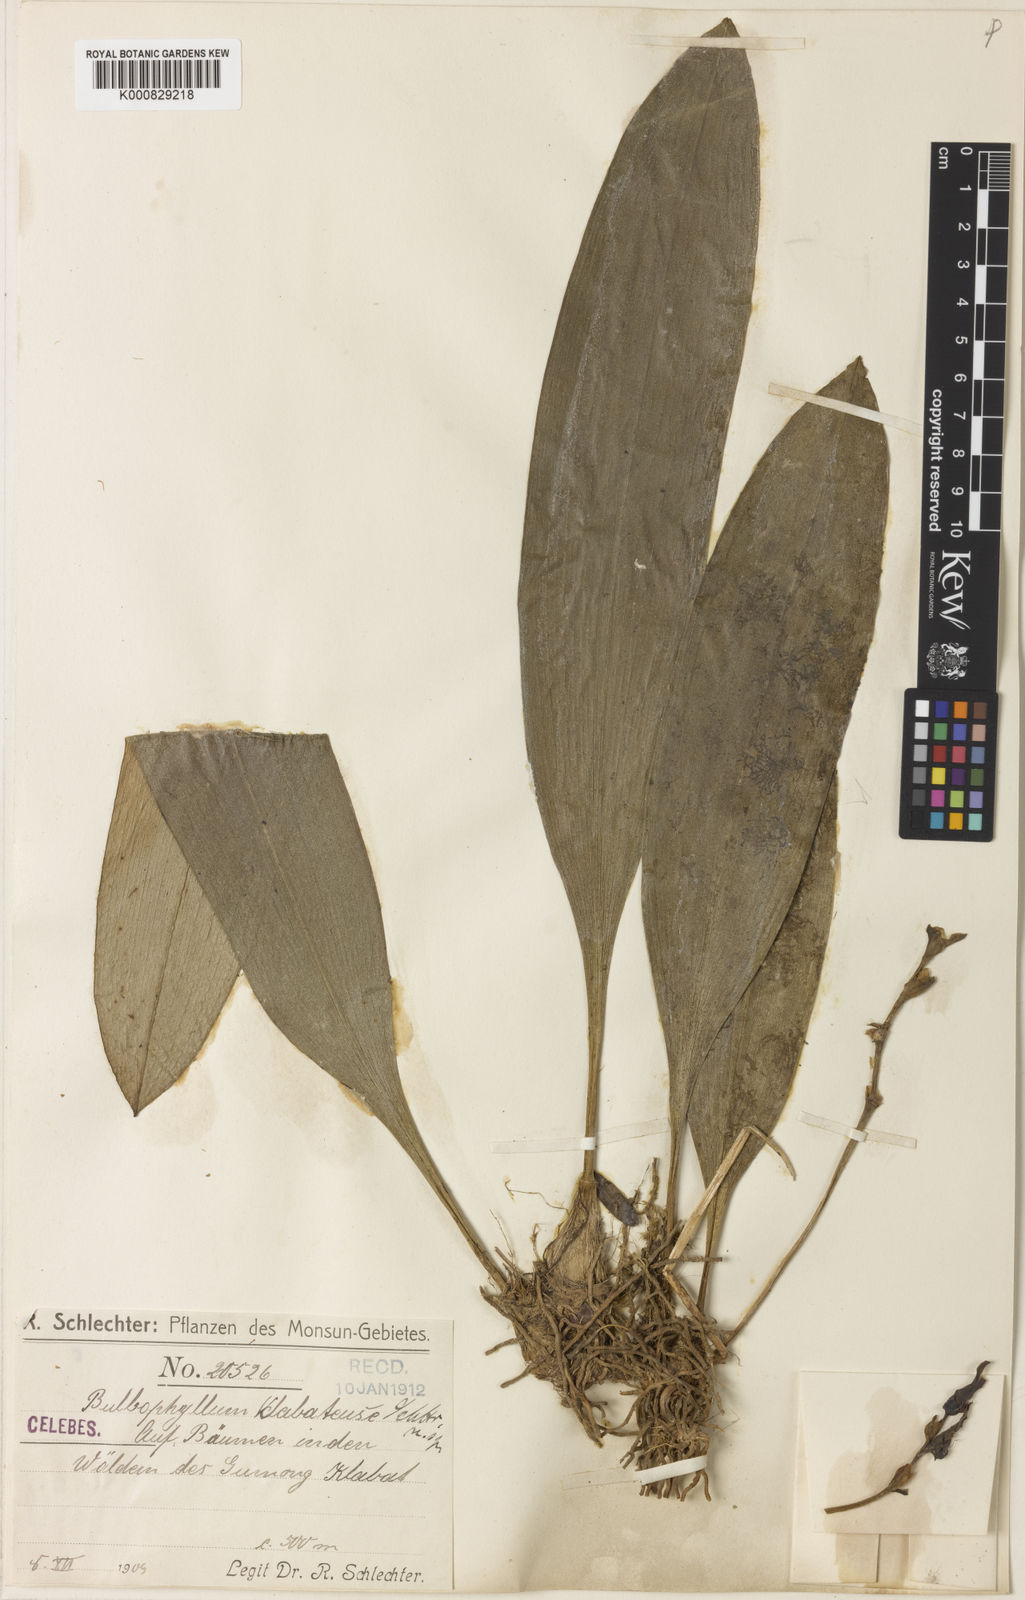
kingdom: Plantae
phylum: Tracheophyta
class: Liliopsida
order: Asparagales
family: Orchidaceae
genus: Bulbophyllum
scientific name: Bulbophyllum klabatense
